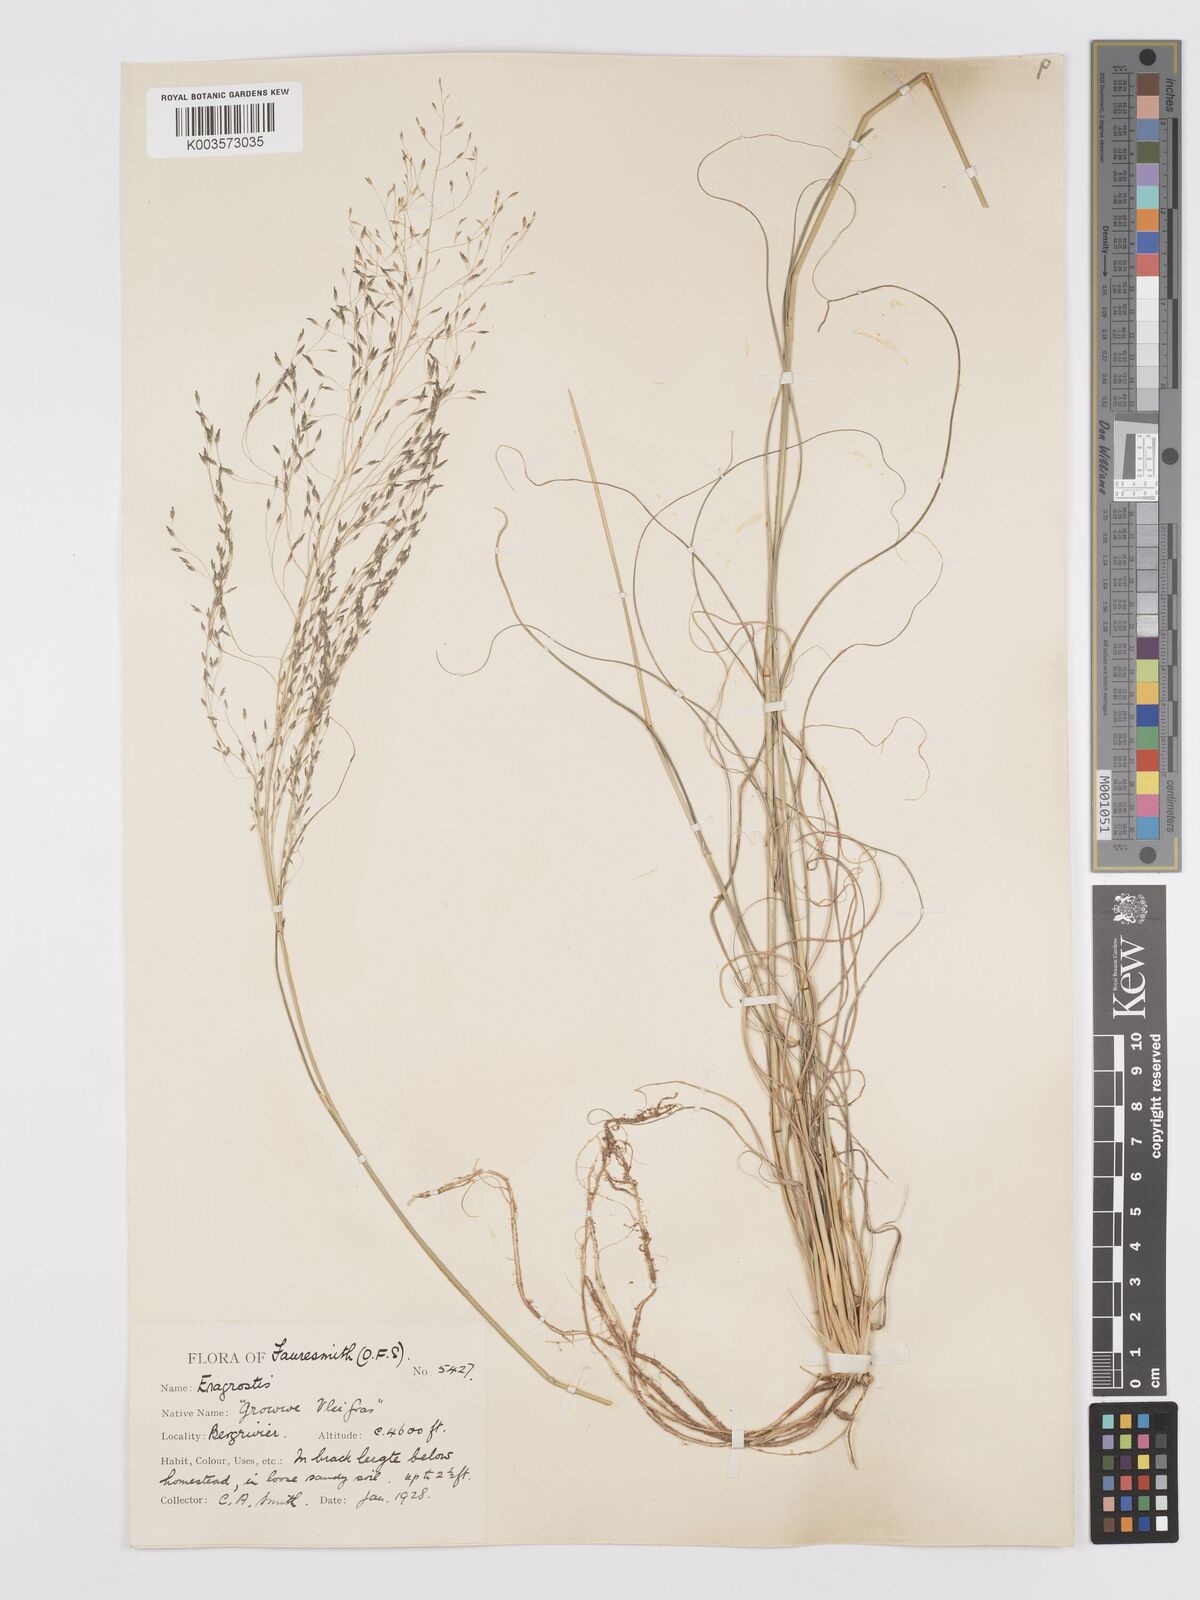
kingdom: Plantae
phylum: Tracheophyta
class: Liliopsida
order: Poales
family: Poaceae
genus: Eragrostis
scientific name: Eragrostis curvula
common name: African love-grass
